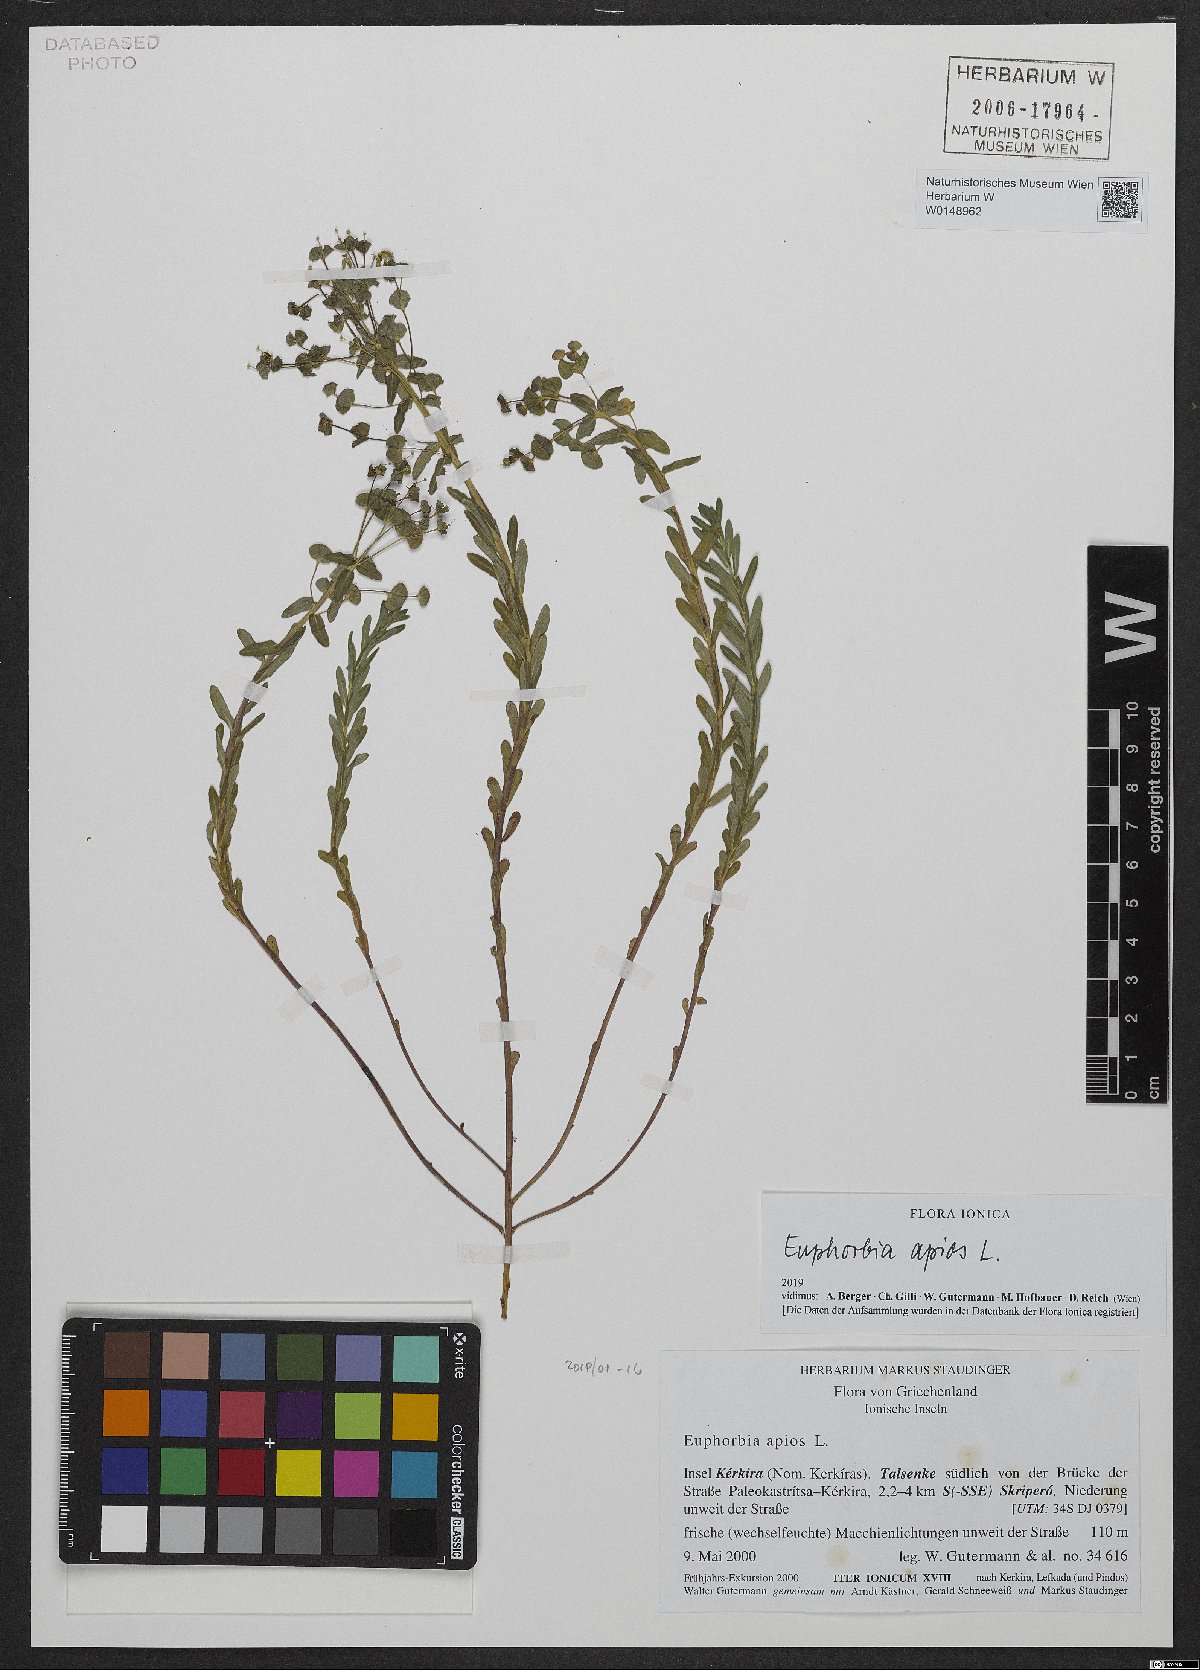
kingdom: Plantae
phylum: Tracheophyta
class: Magnoliopsida
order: Malpighiales
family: Euphorbiaceae
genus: Euphorbia
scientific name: Euphorbia apios
